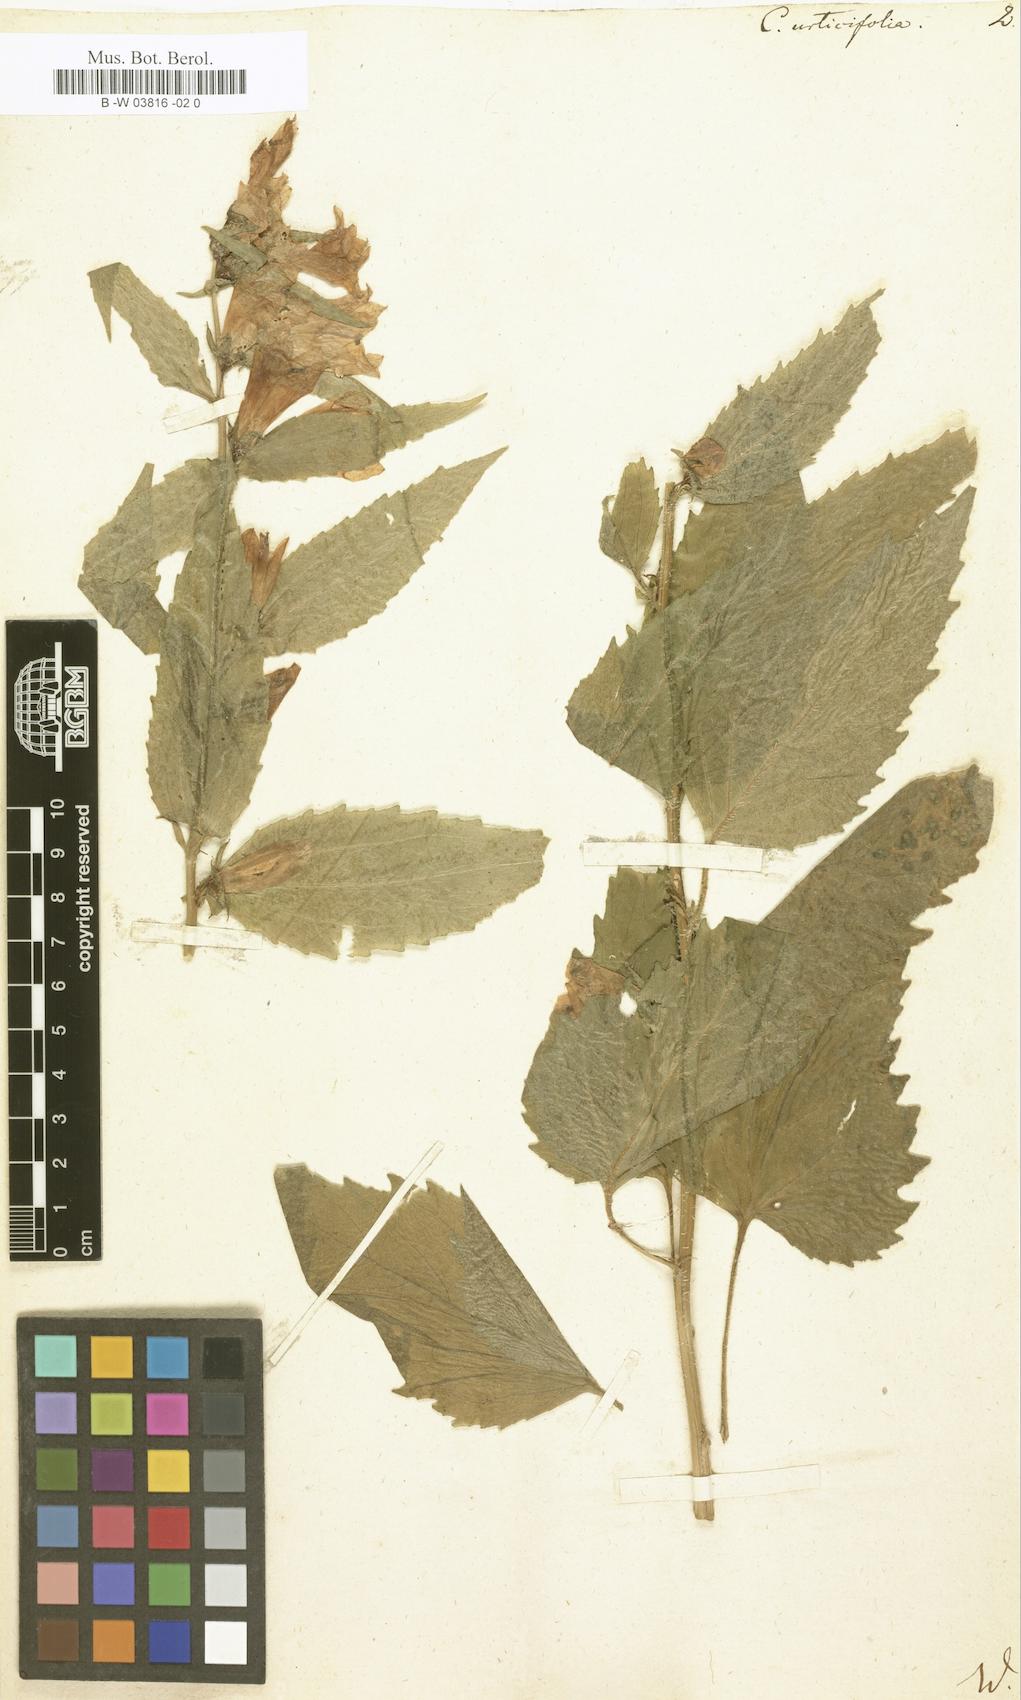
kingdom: Plantae
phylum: Tracheophyta
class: Magnoliopsida
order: Asterales
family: Campanulaceae
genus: Campanula
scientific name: Campanula urticifolia
